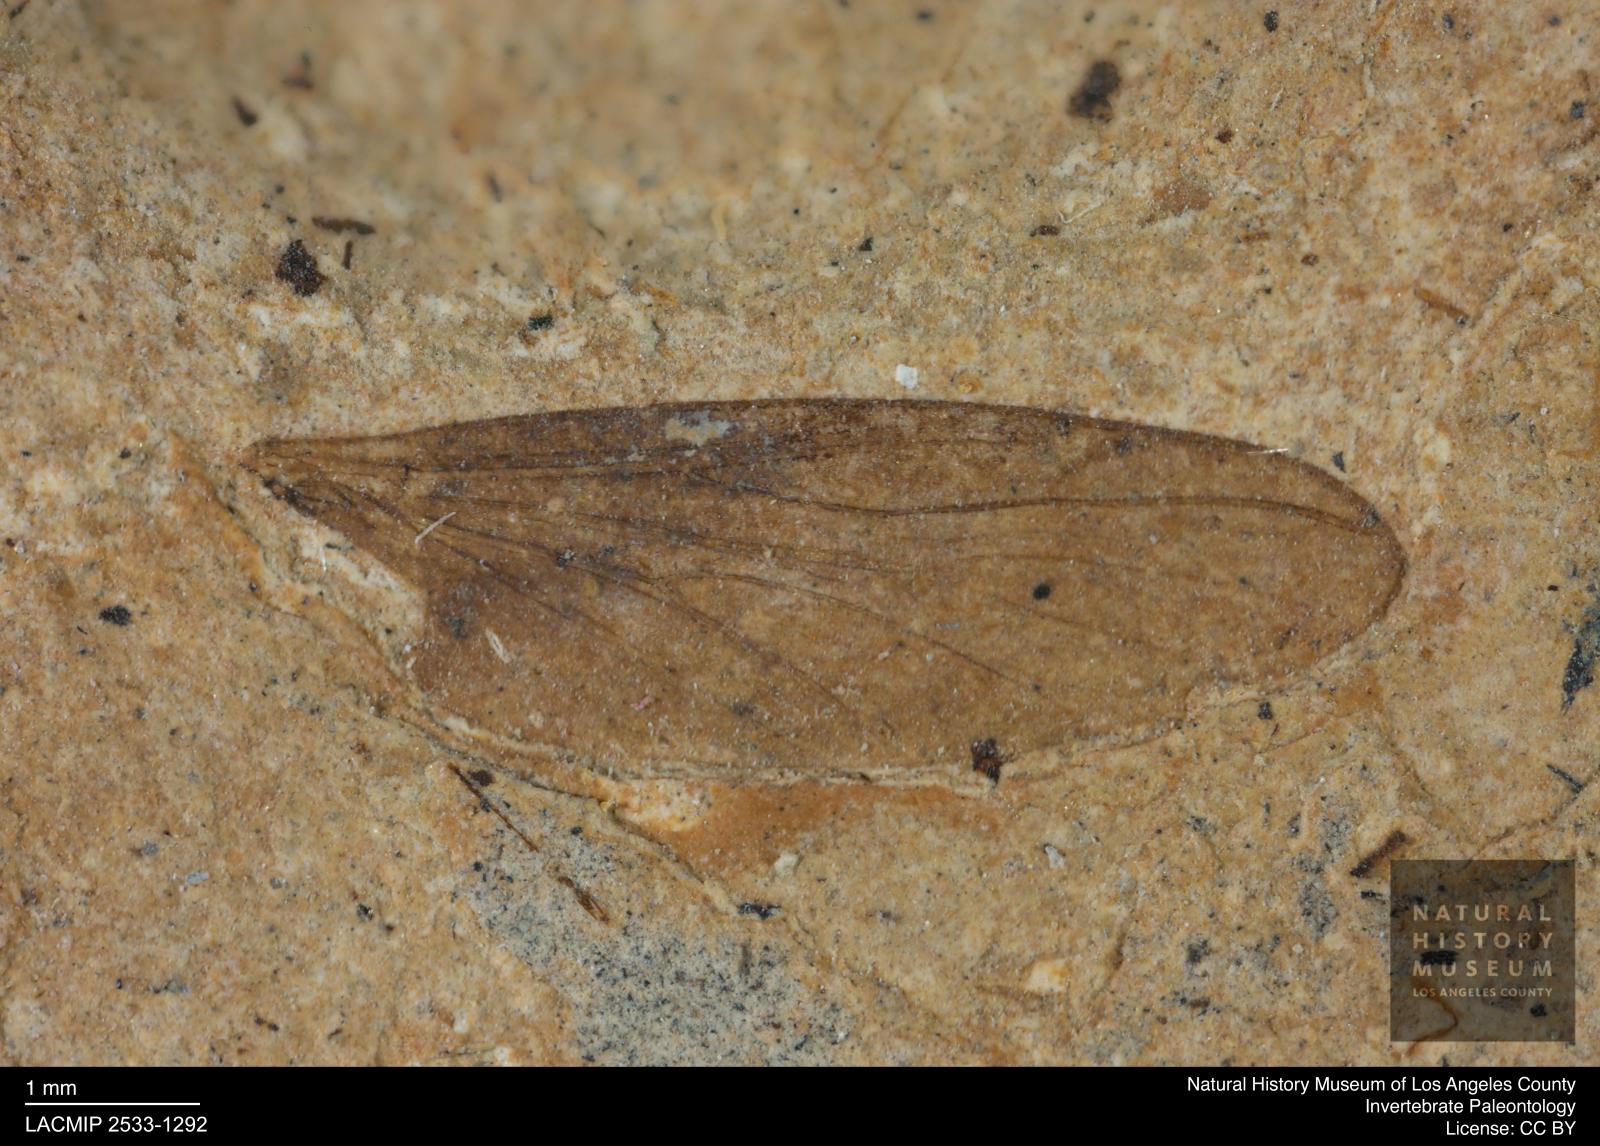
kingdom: Animalia
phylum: Arthropoda
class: Insecta
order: Diptera
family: Bibionidae
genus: Plecia
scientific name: Plecia hypogaea
